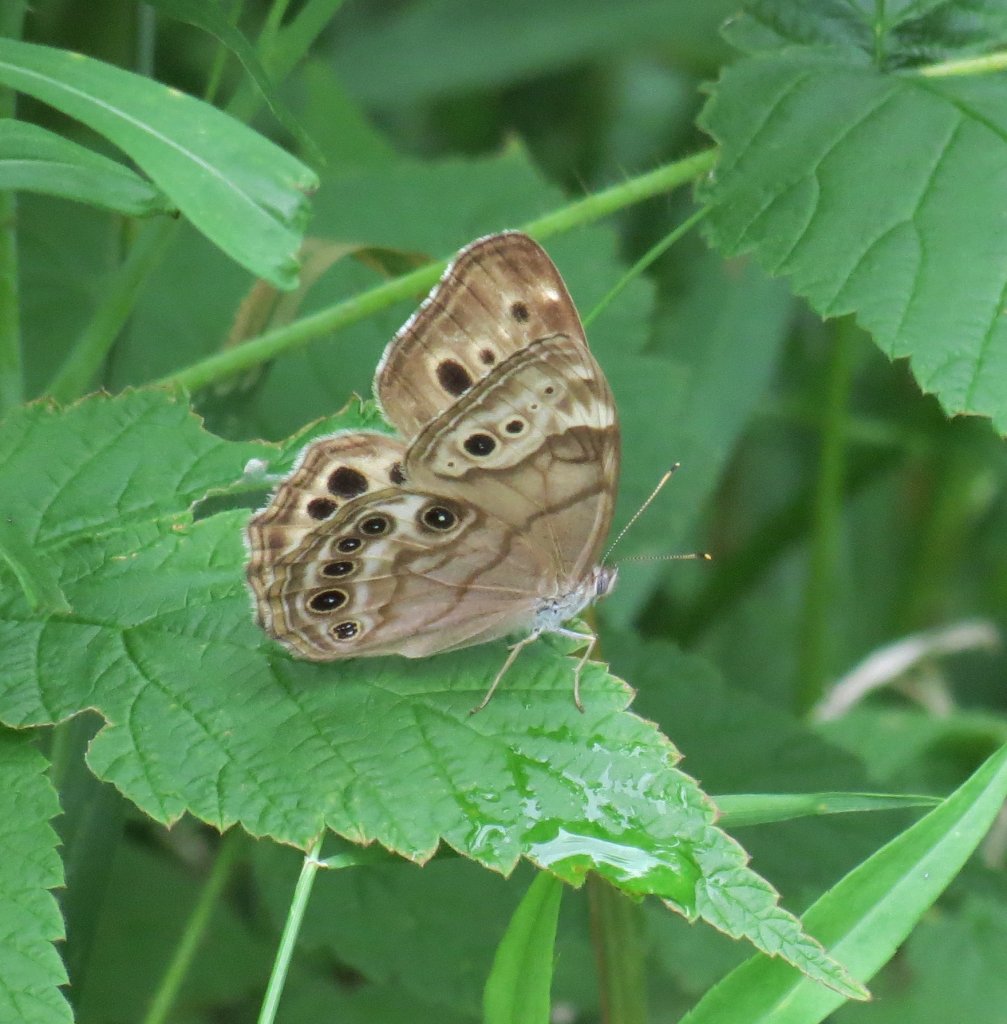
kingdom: Animalia
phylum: Arthropoda
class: Insecta
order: Lepidoptera
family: Nymphalidae
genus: Lethe
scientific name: Lethe anthedon
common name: Northern Pearly-Eye
